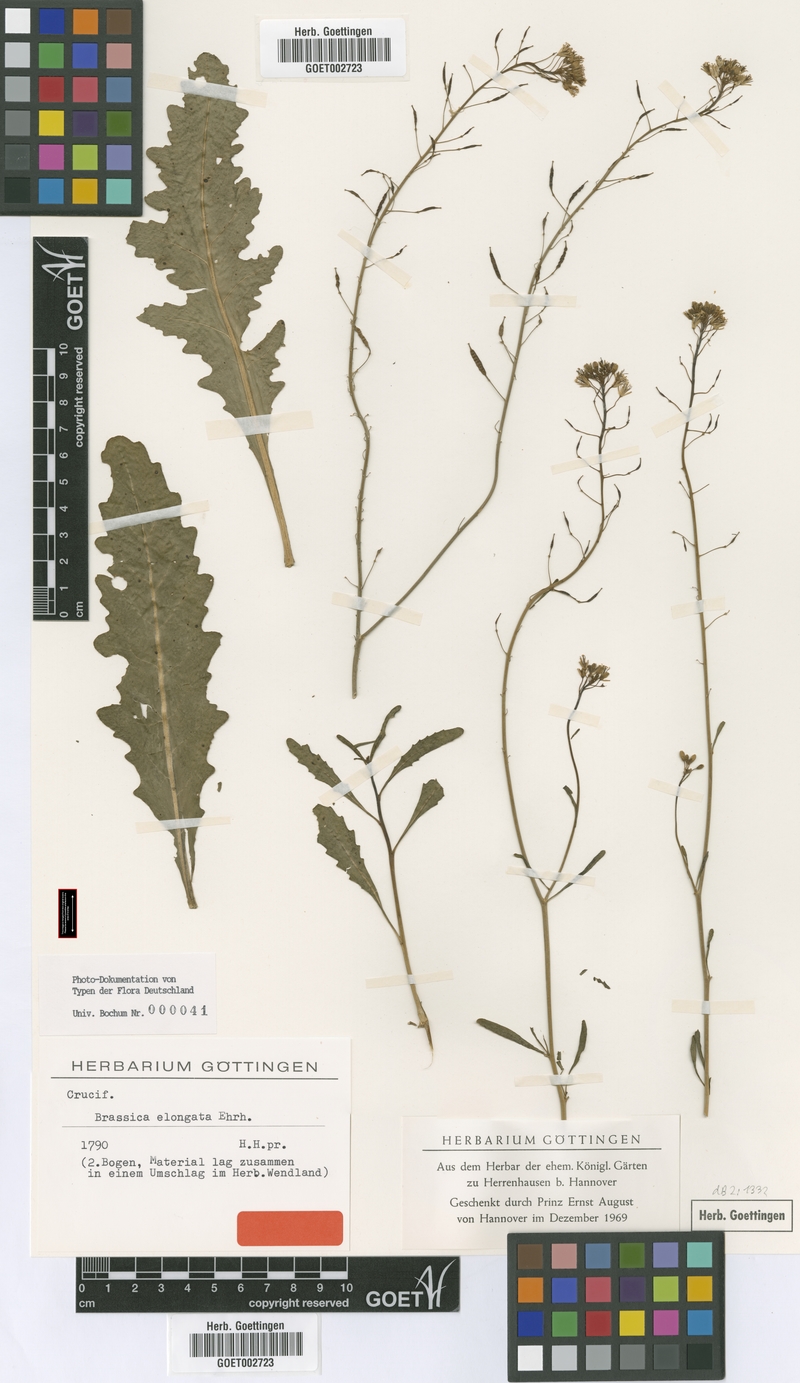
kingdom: Plantae
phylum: Tracheophyta
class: Magnoliopsida
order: Brassicales
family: Brassicaceae
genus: Brassica
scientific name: Brassica elongata
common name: Long-stalked rape
